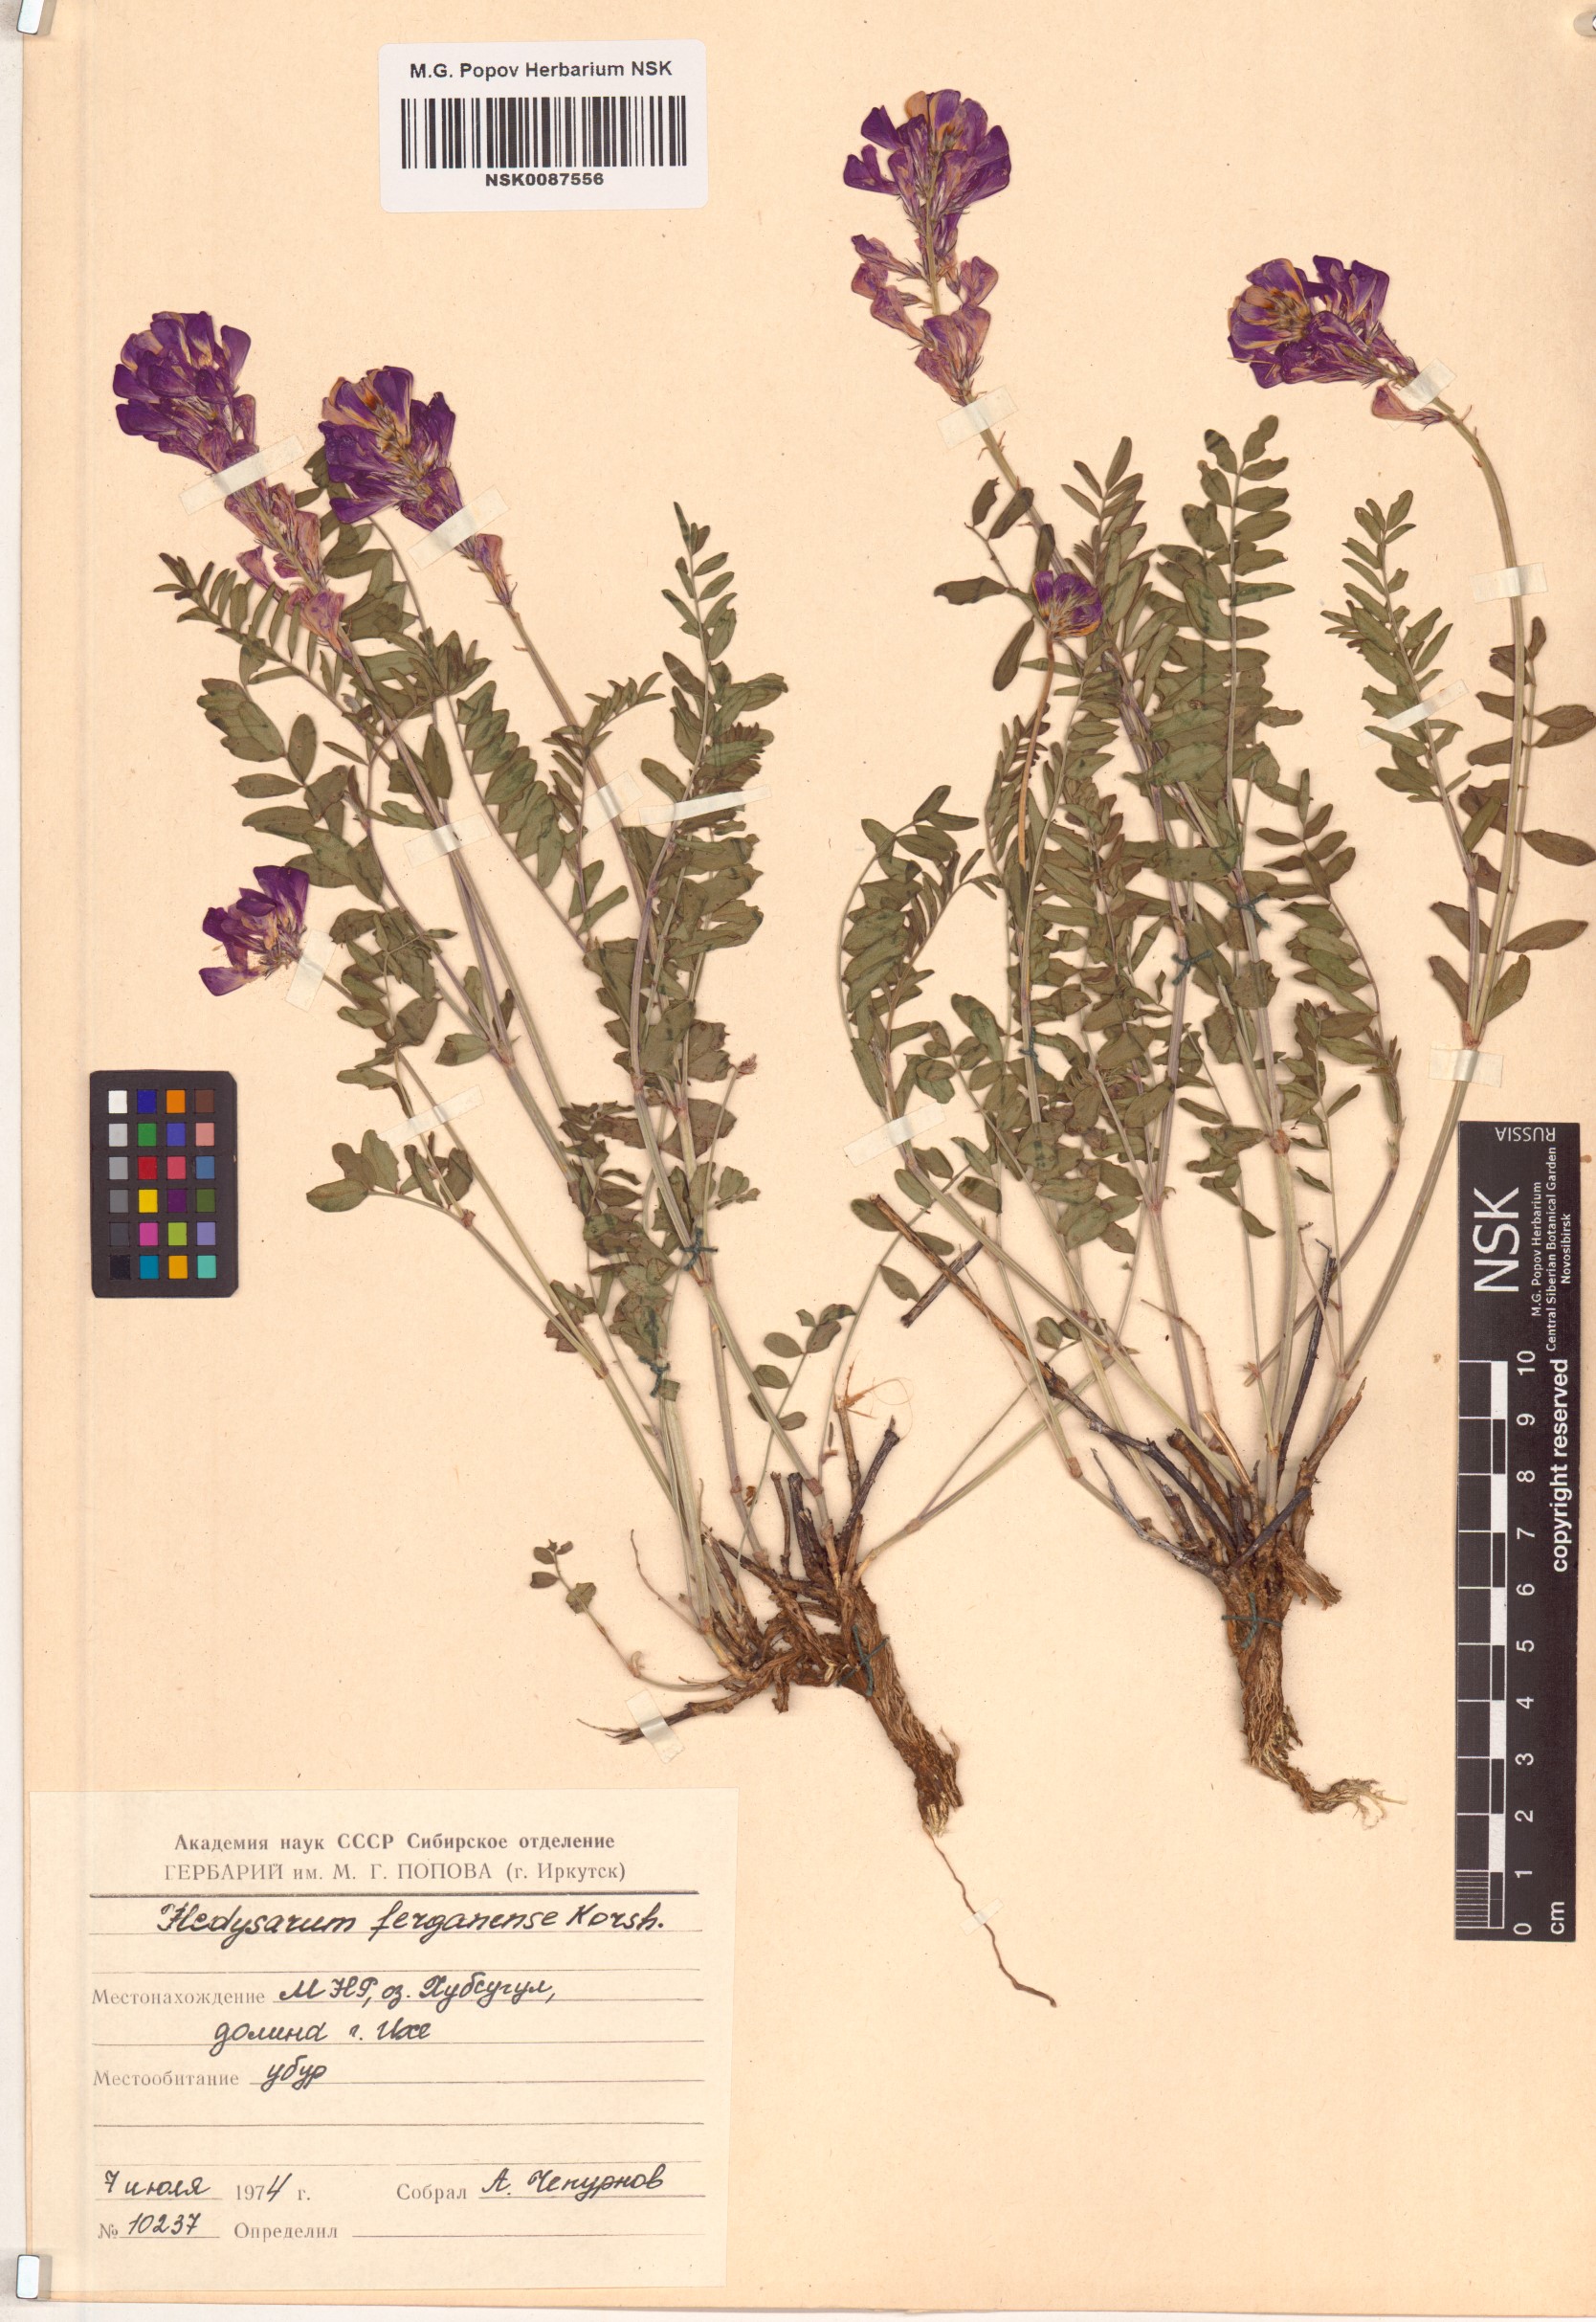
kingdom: Plantae
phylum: Tracheophyta
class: Magnoliopsida
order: Fabales
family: Fabaceae
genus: Hedysarum
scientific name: Hedysarum ferganense
